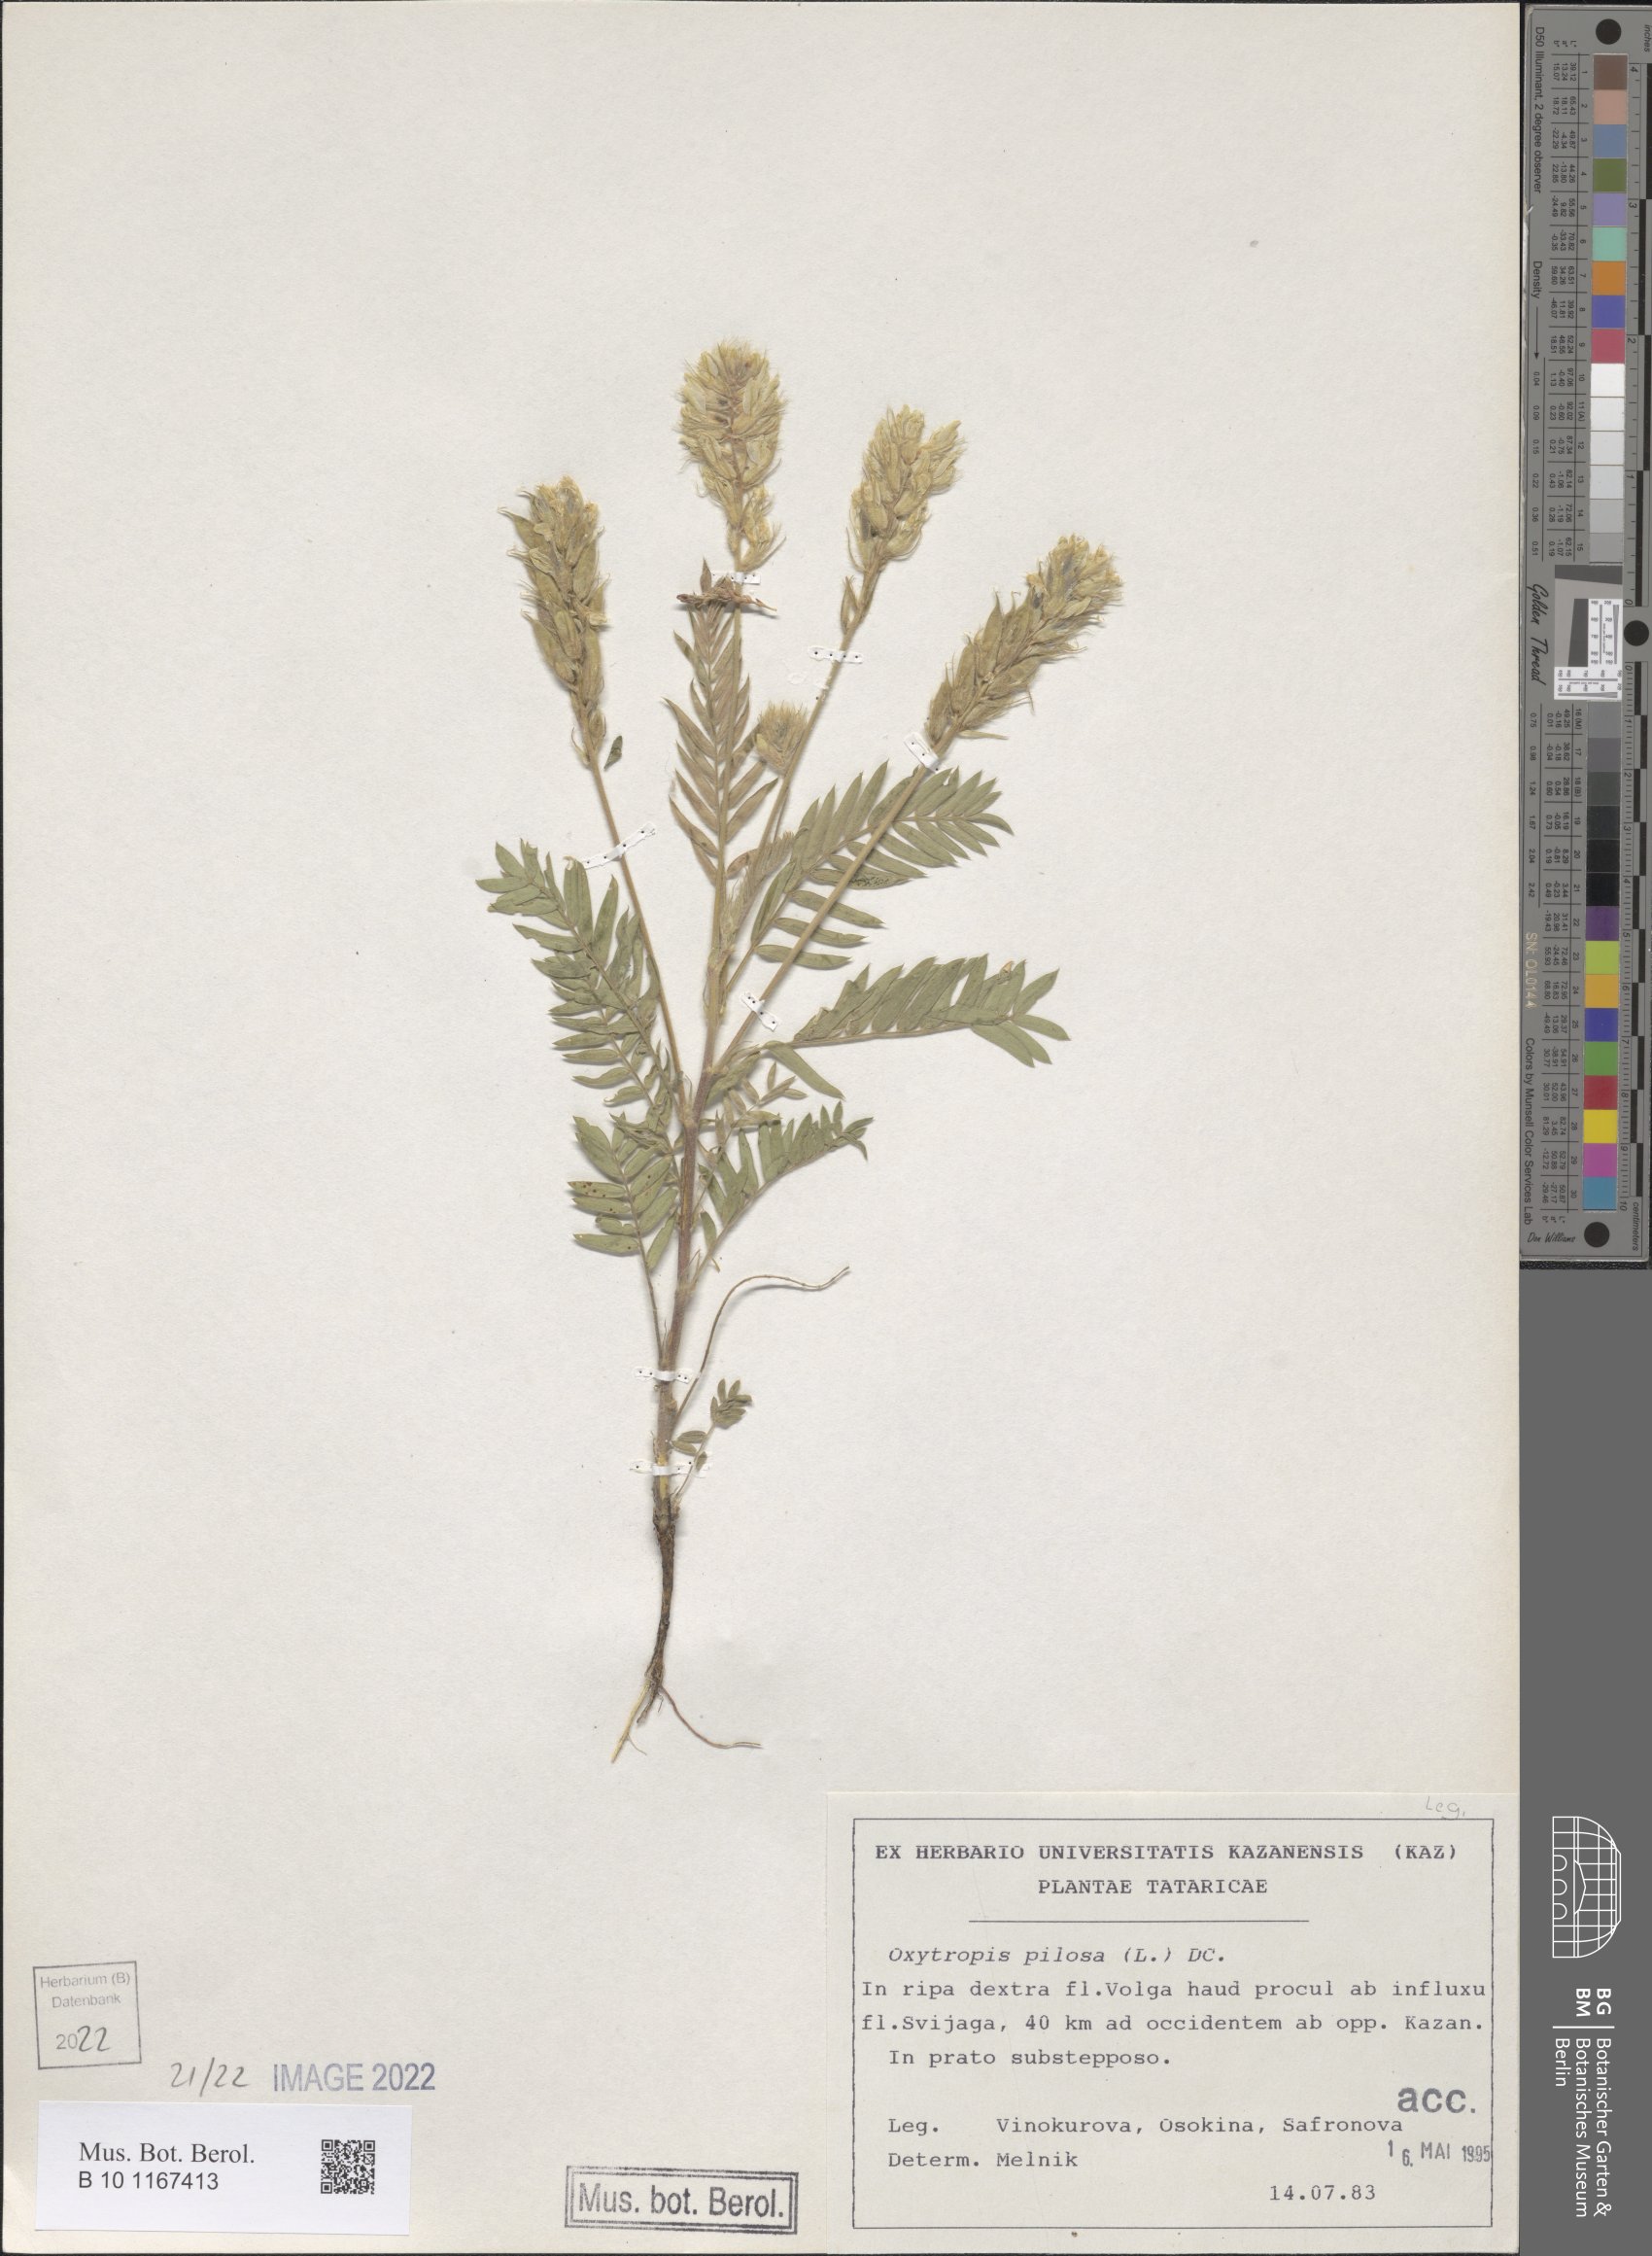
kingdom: Plantae
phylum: Tracheophyta
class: Magnoliopsida
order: Fabales
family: Fabaceae
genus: Oxytropis
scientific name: Oxytropis pilosa
